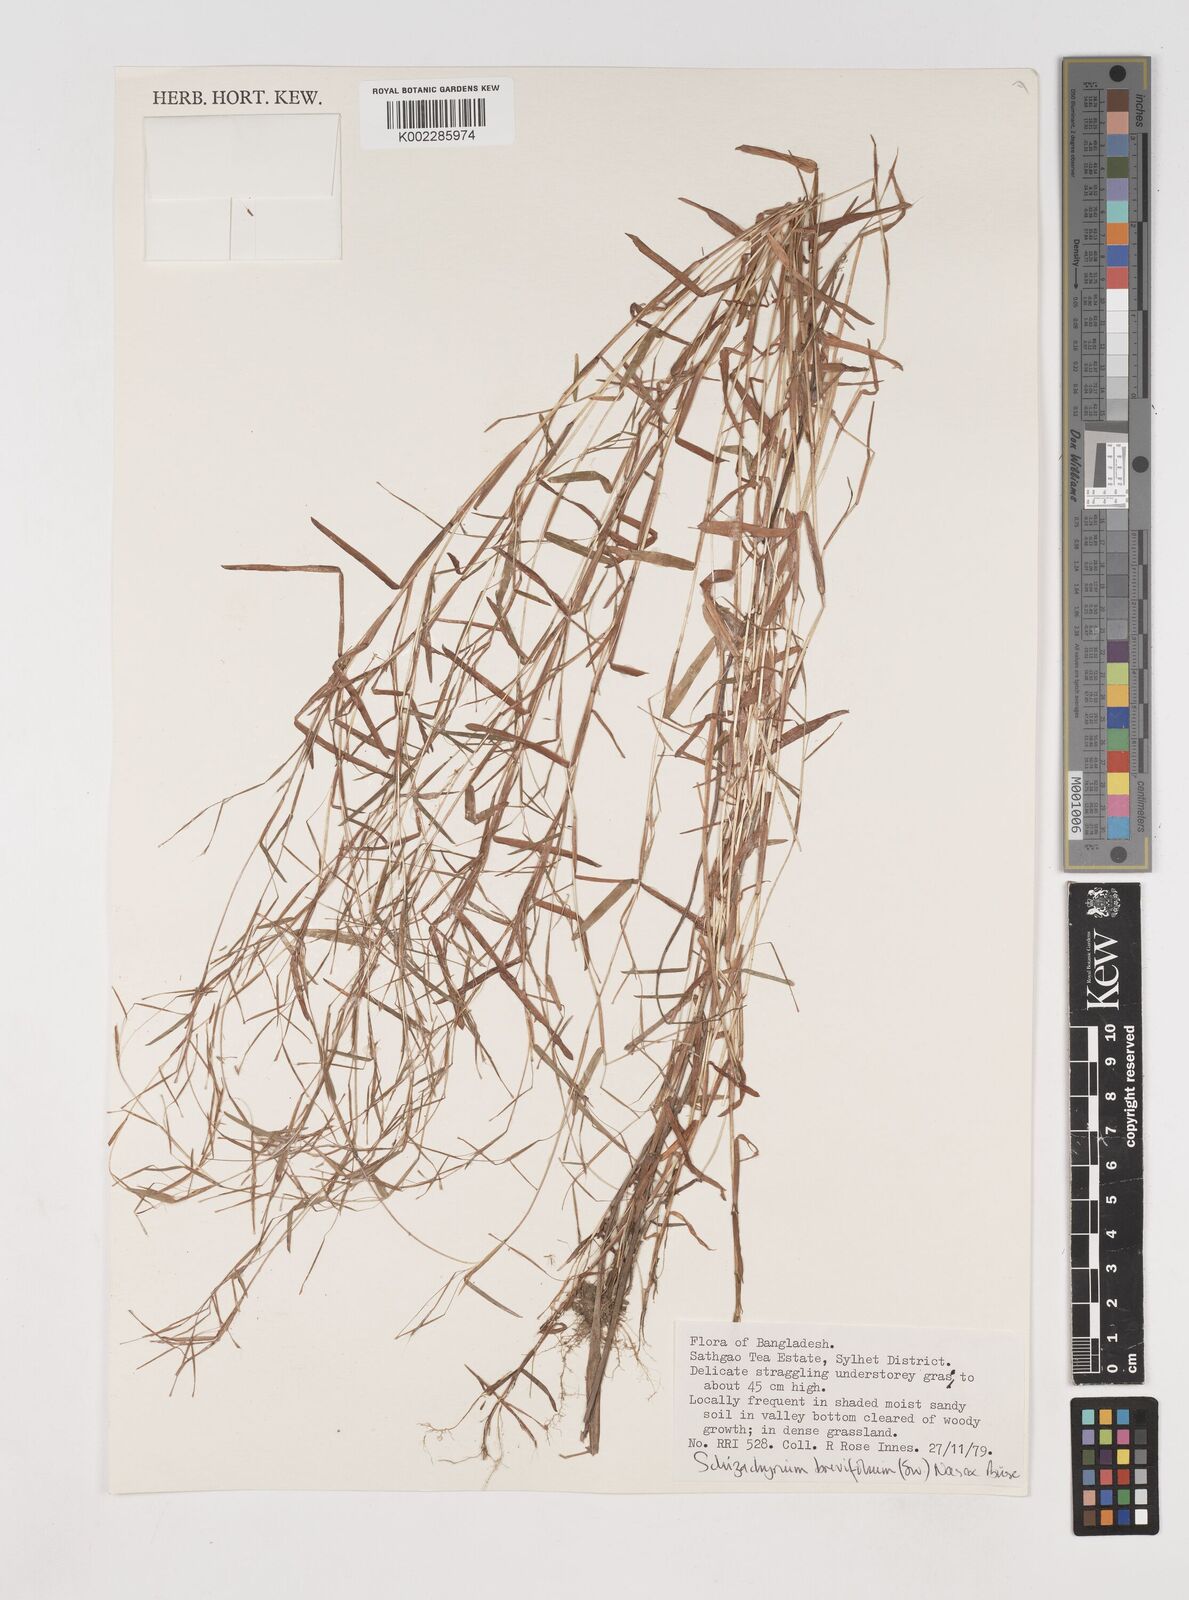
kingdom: Plantae
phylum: Tracheophyta
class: Liliopsida
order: Poales
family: Poaceae
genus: Schizachyrium
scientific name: Schizachyrium brevifolium
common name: Serillo dulce
